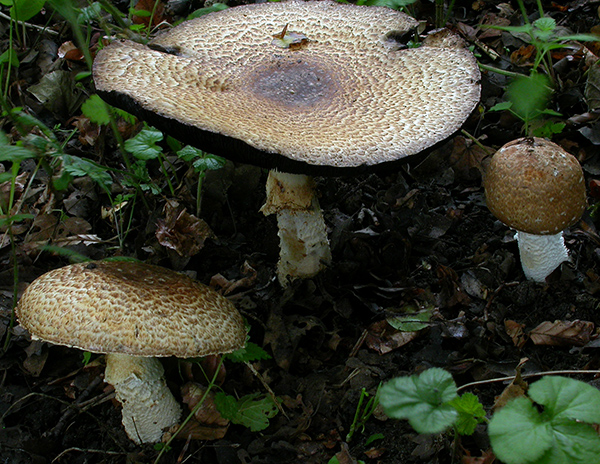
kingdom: Fungi
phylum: Basidiomycota
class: Agaricomycetes
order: Agaricales
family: Agaricaceae
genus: Agaricus
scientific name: Agaricus augustus
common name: prægtig champignon
